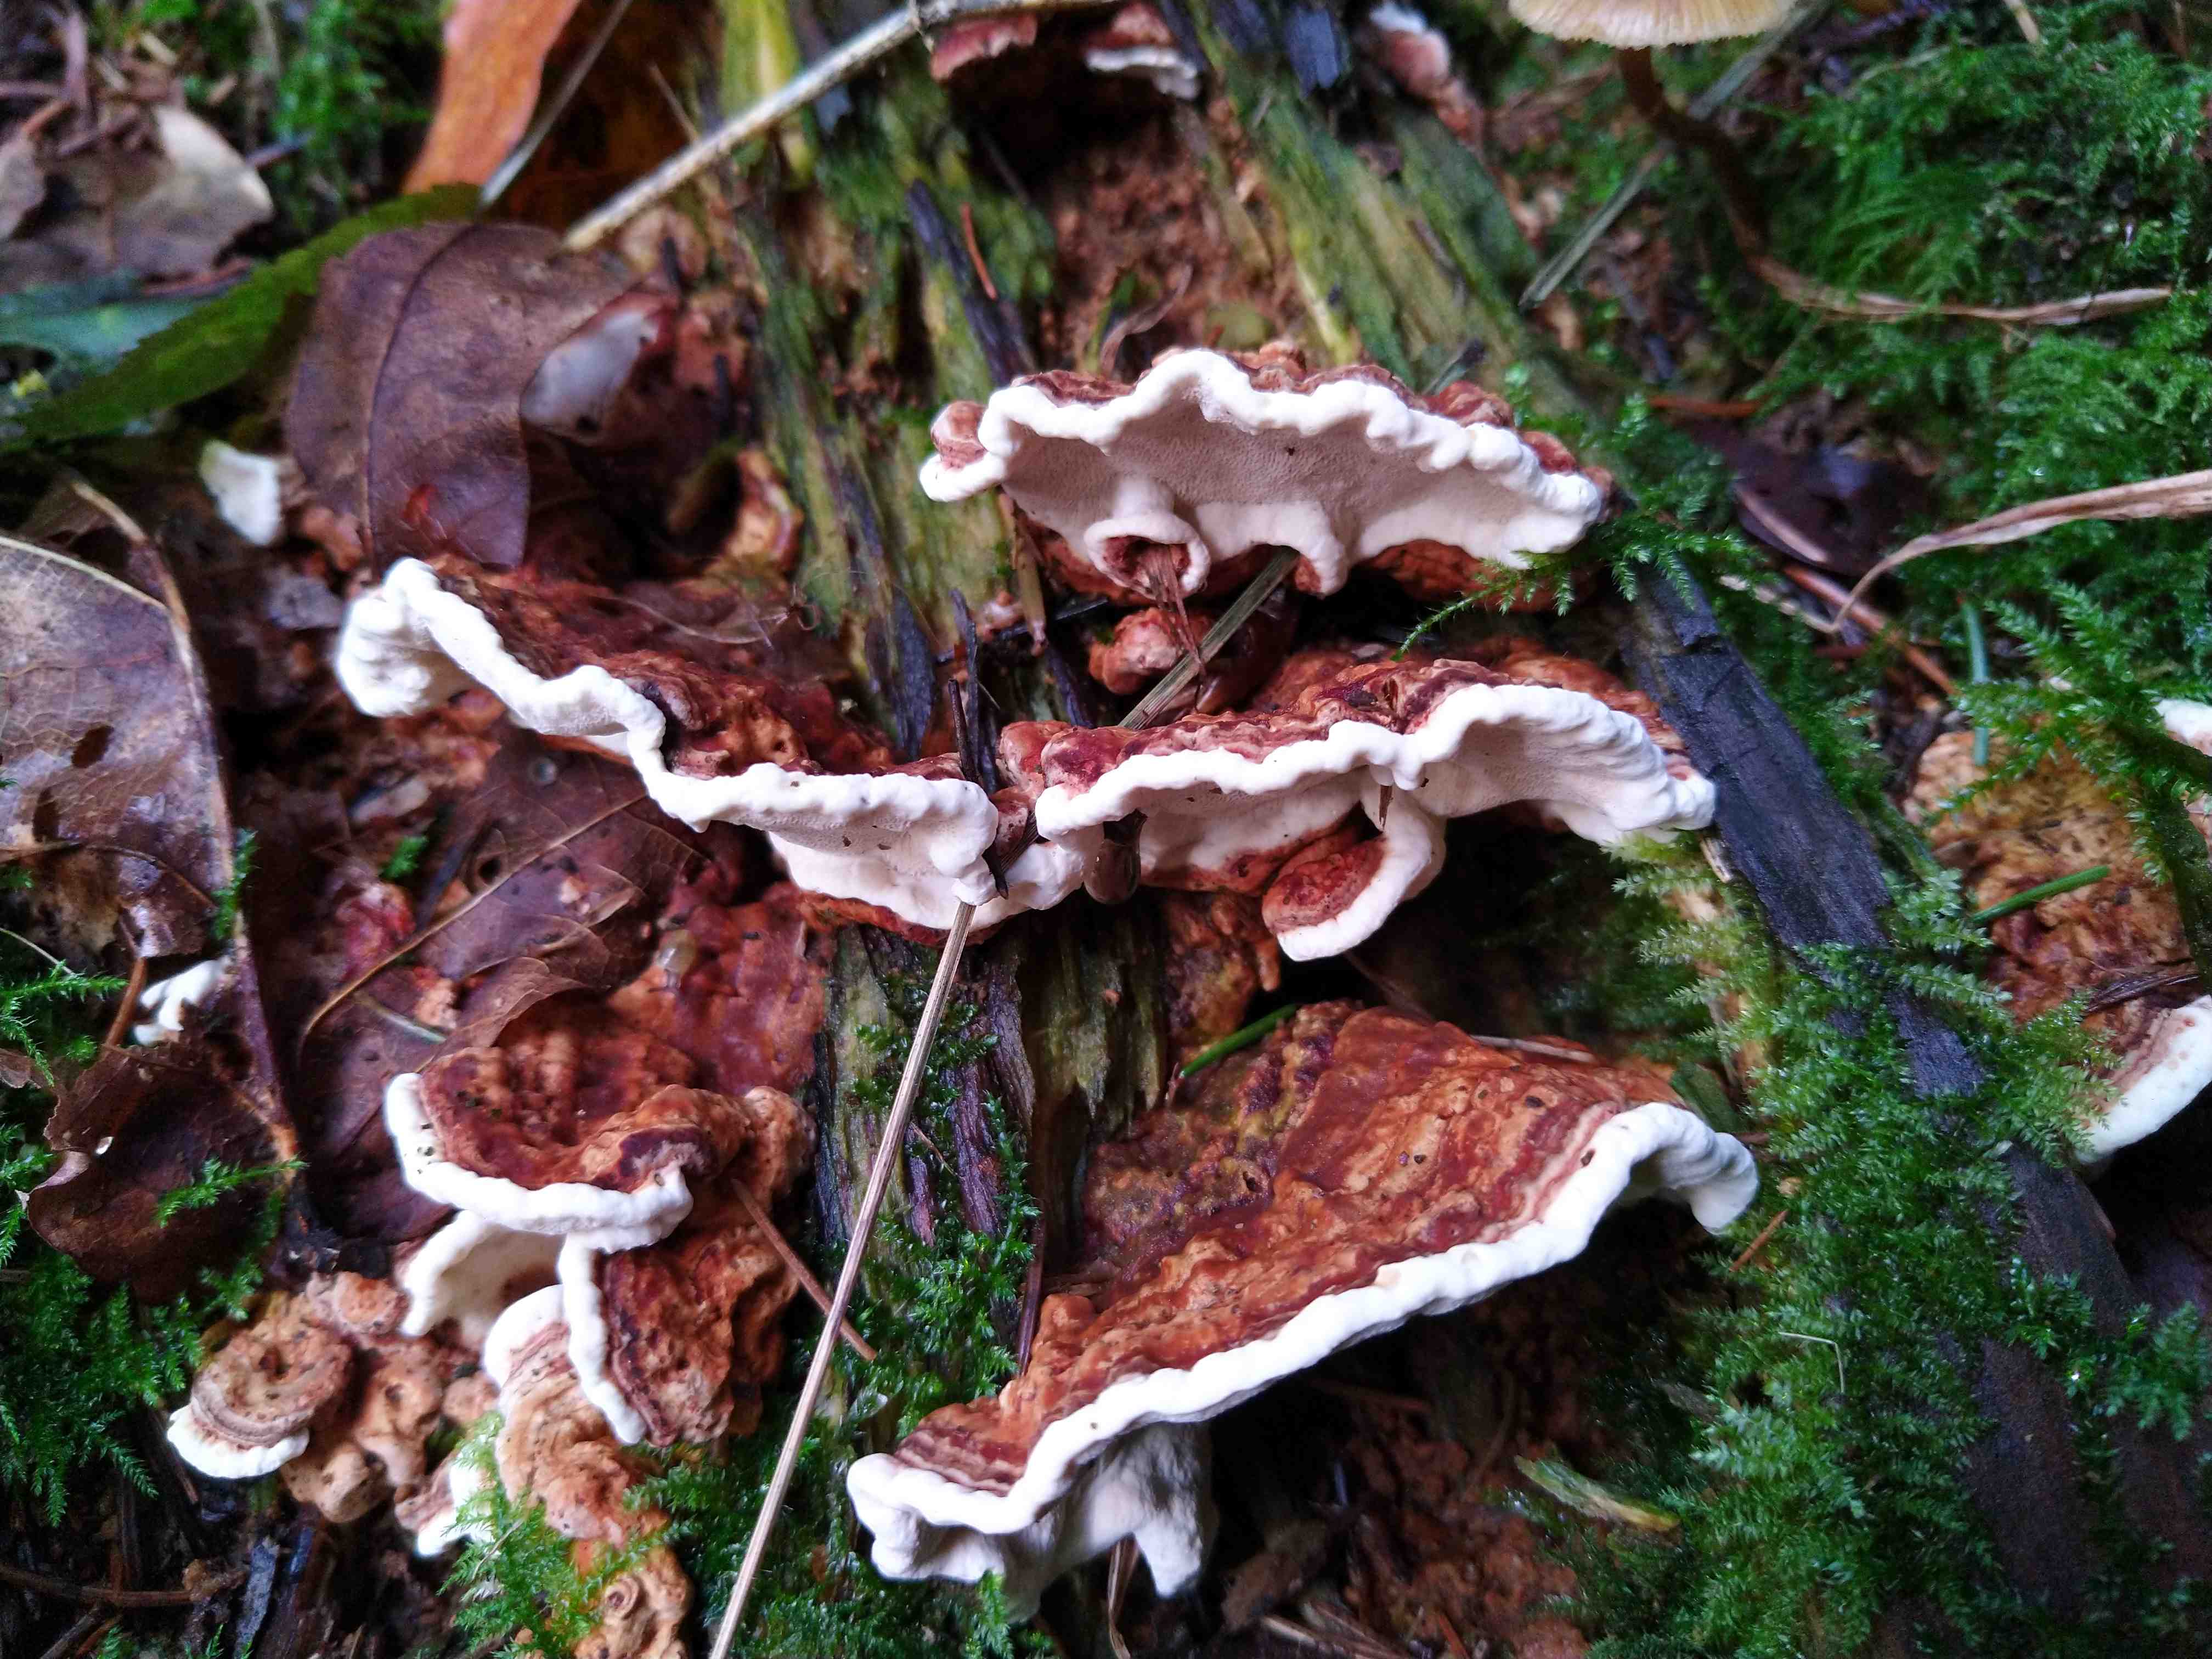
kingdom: Fungi
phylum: Basidiomycota
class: Agaricomycetes
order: Russulales
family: Bondarzewiaceae
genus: Heterobasidion
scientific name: Heterobasidion annosum
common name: almindelig rodfordærver
